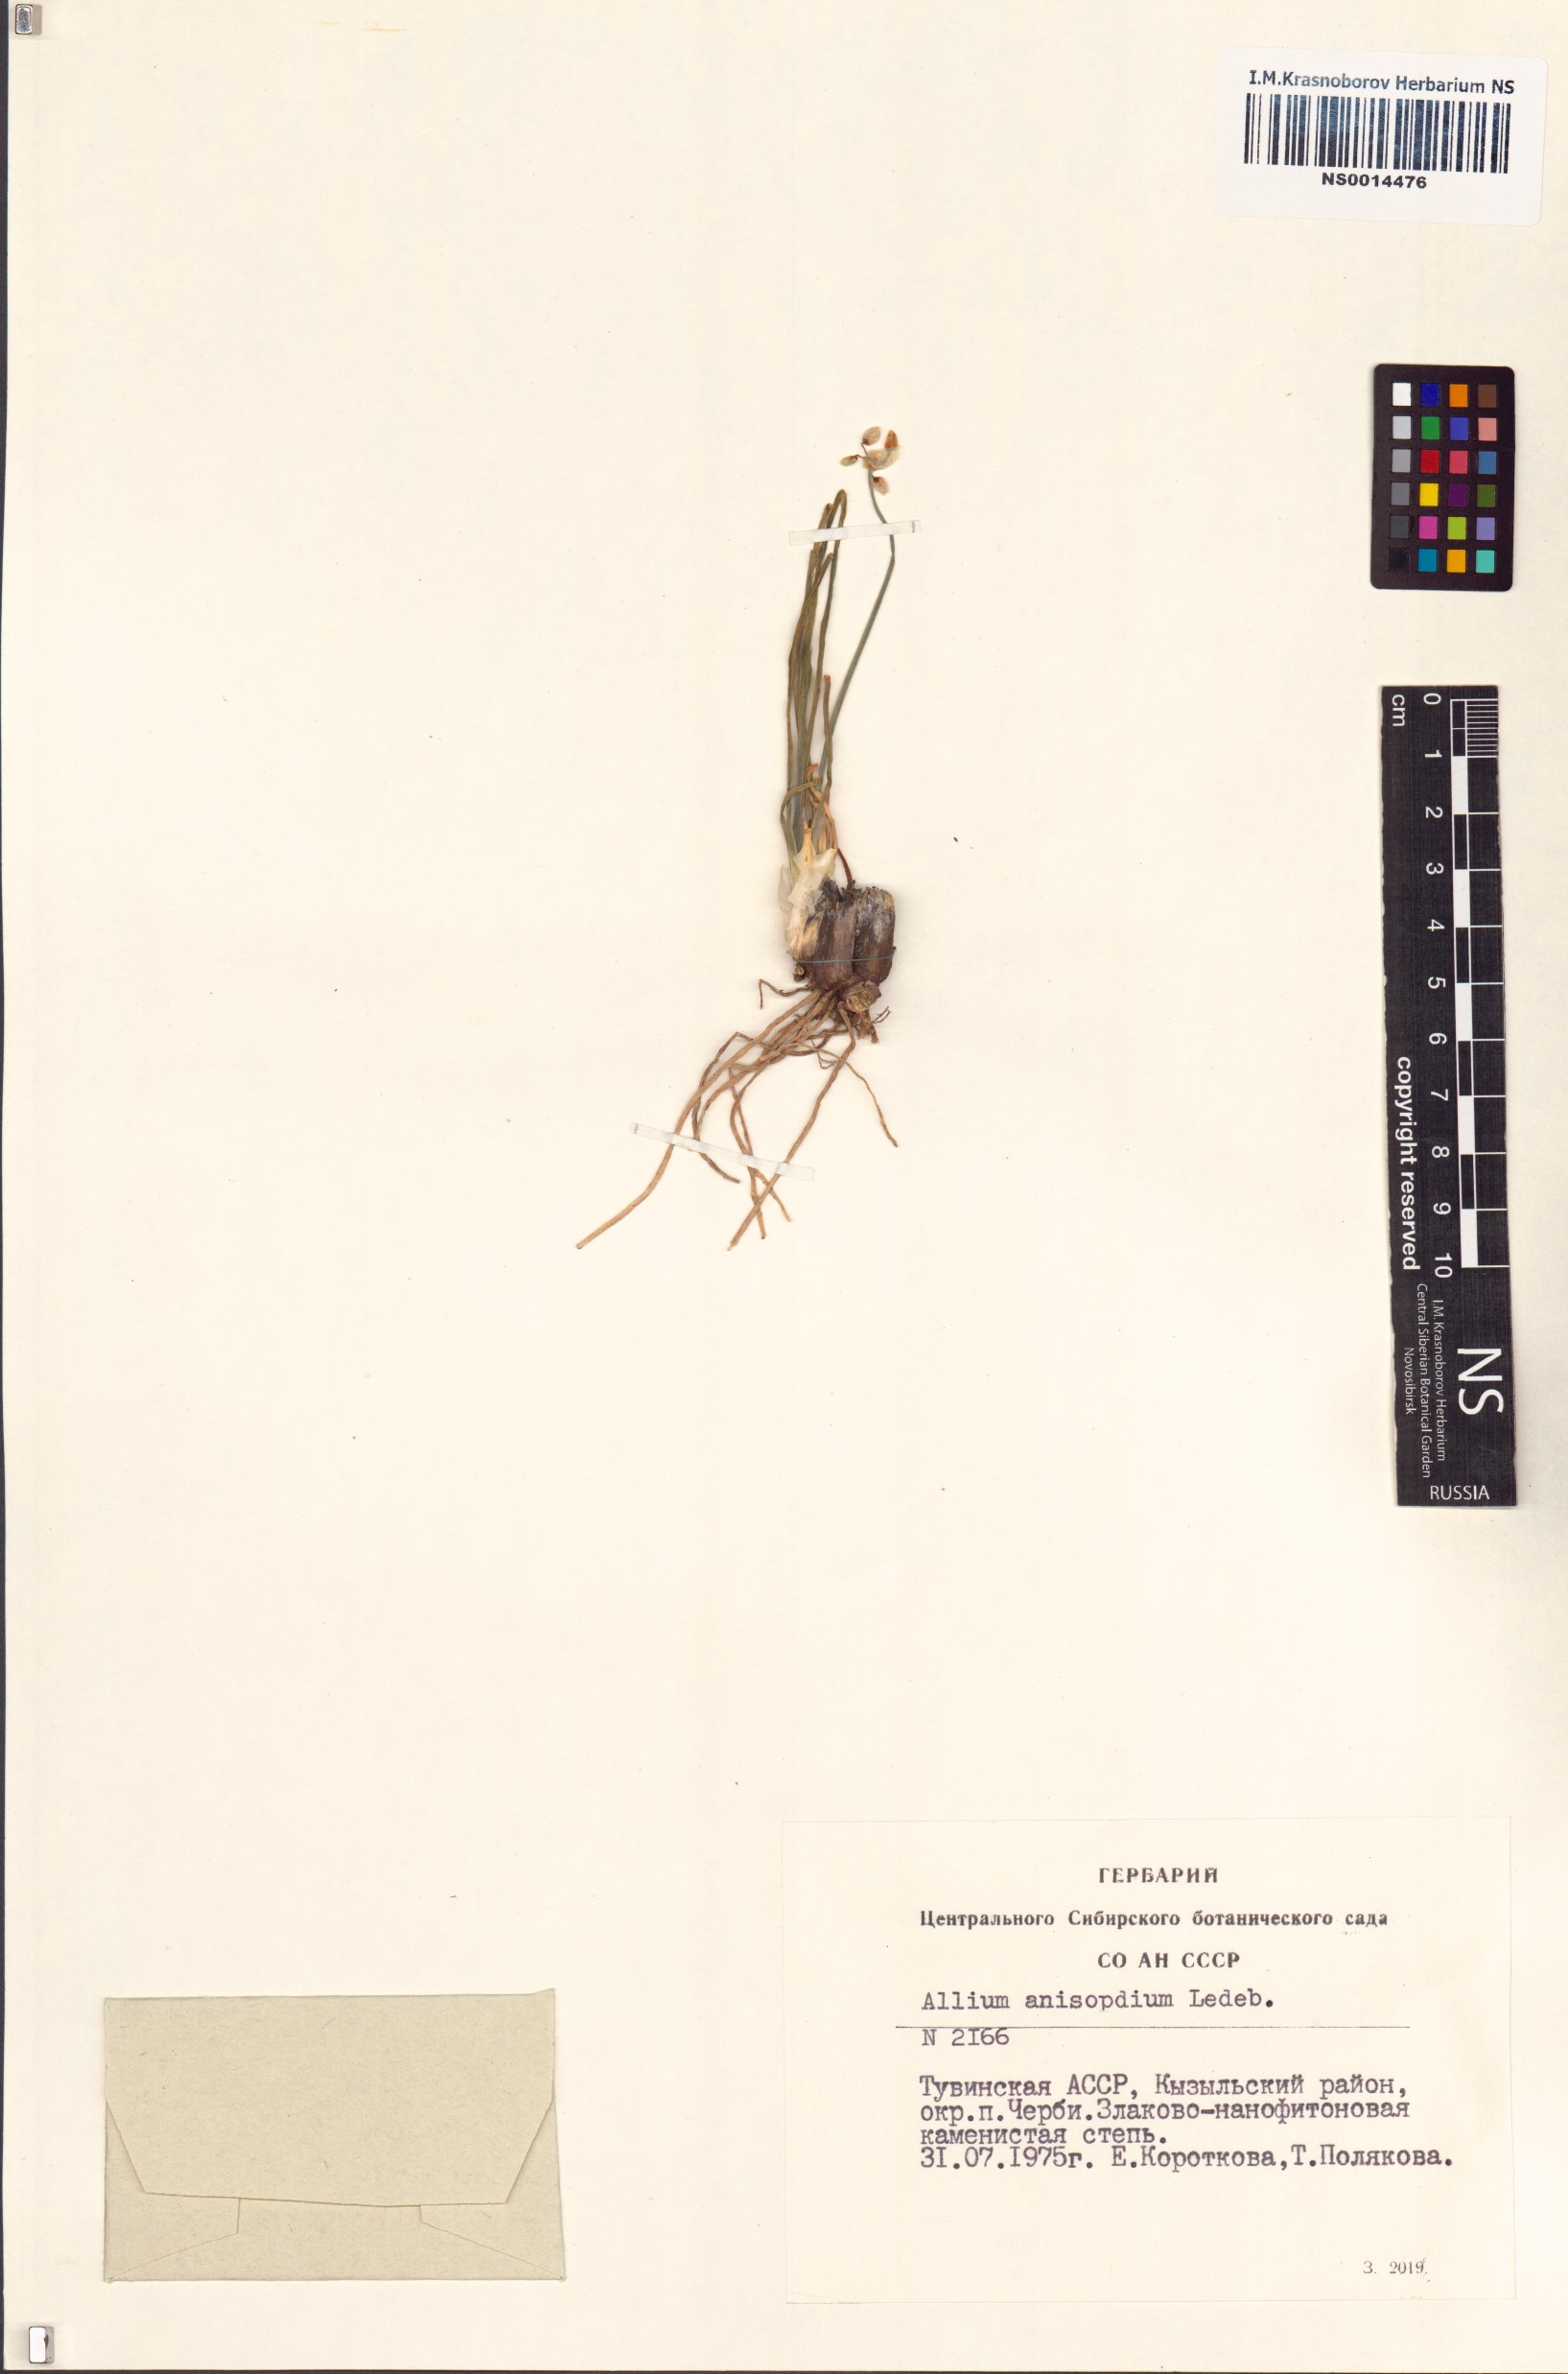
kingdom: Plantae
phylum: Tracheophyta
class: Liliopsida
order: Asparagales
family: Amaryllidaceae
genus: Allium
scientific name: Allium anisopodium
